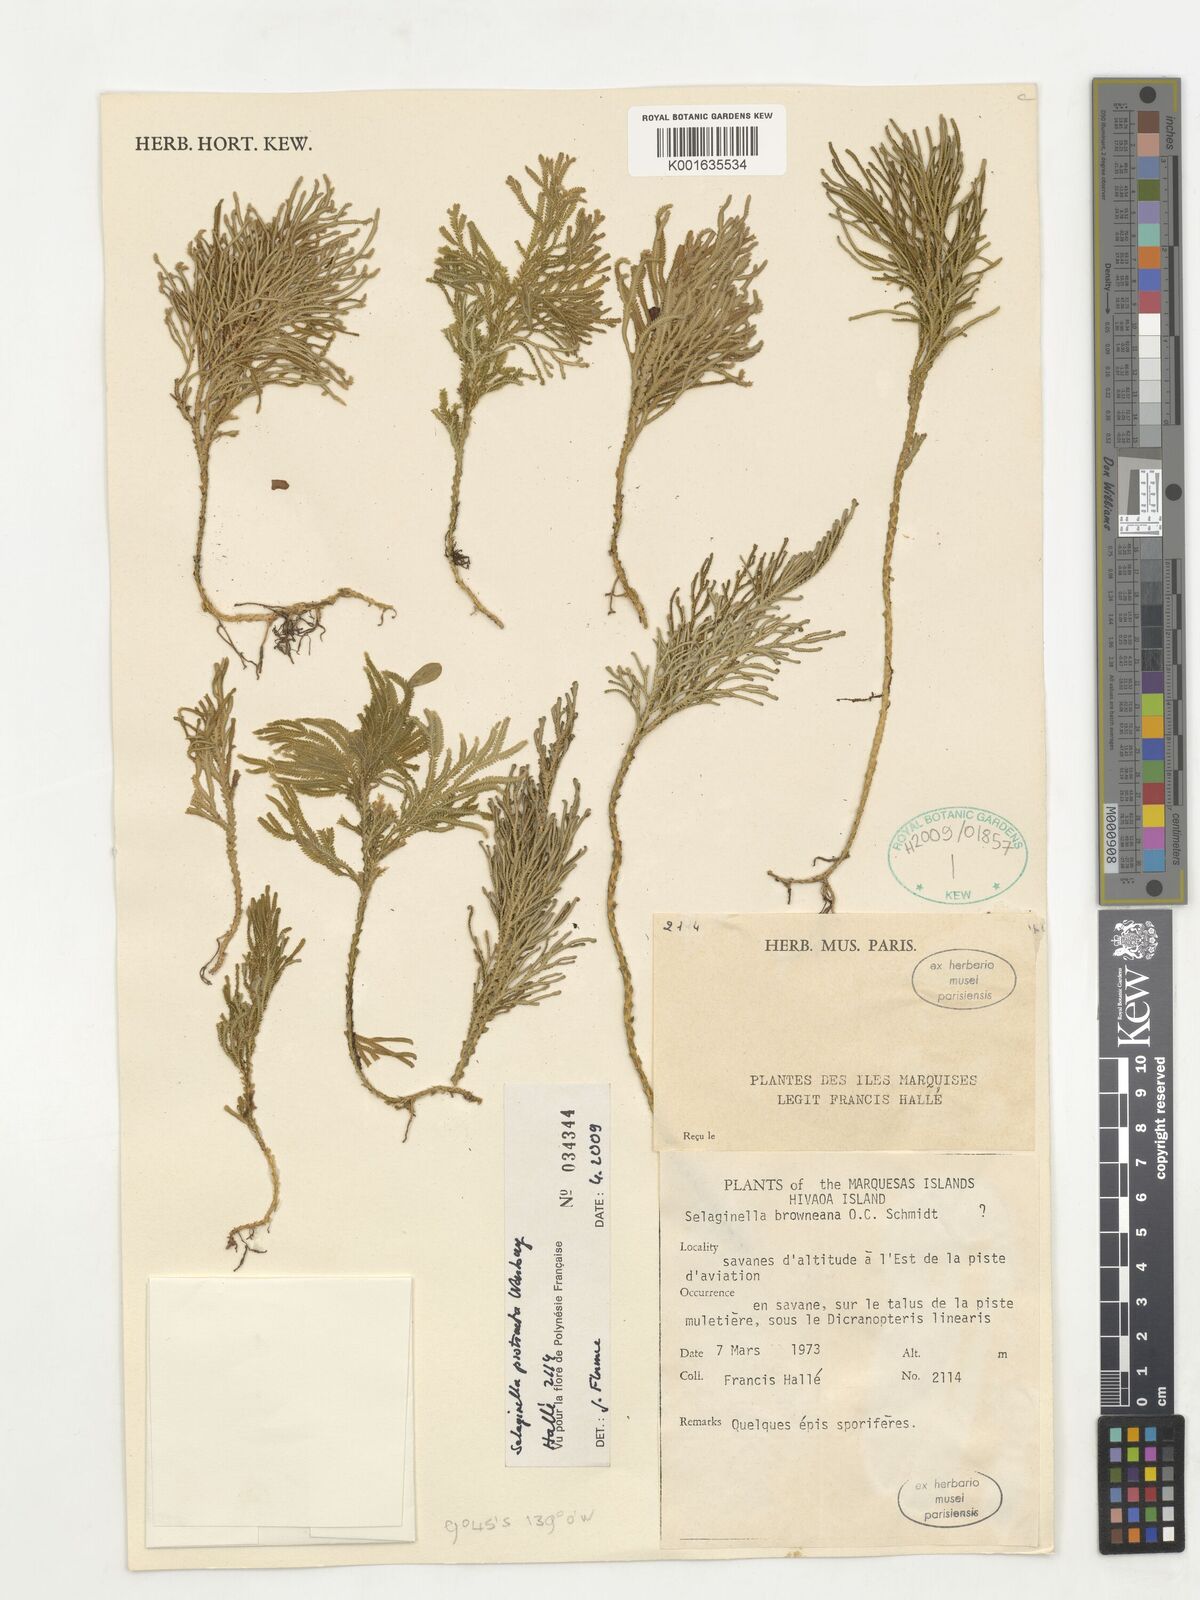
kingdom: Plantae
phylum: Tracheophyta
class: Lycopodiopsida
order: Selaginellales
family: Selaginellaceae
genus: Selaginella
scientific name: Selaginella arbuscula
